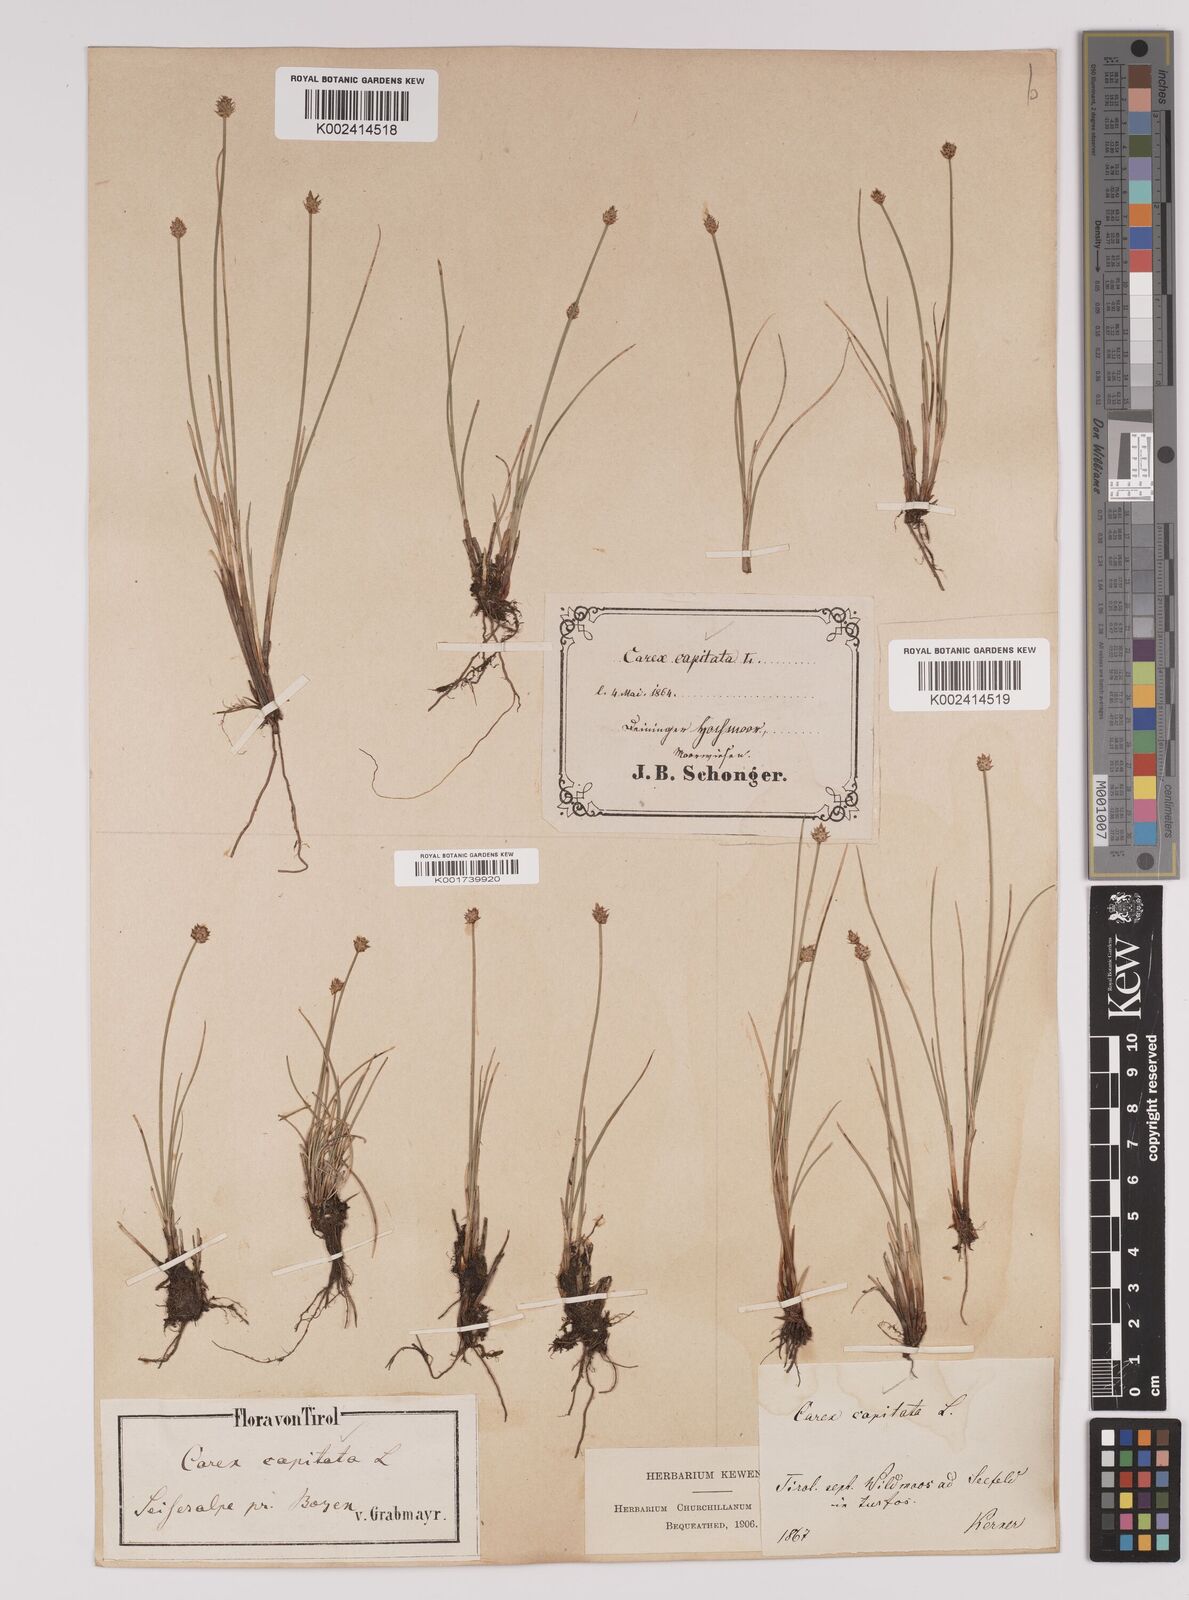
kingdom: Plantae
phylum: Tracheophyta
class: Liliopsida
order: Poales
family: Cyperaceae
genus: Carex
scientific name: Carex capitata
